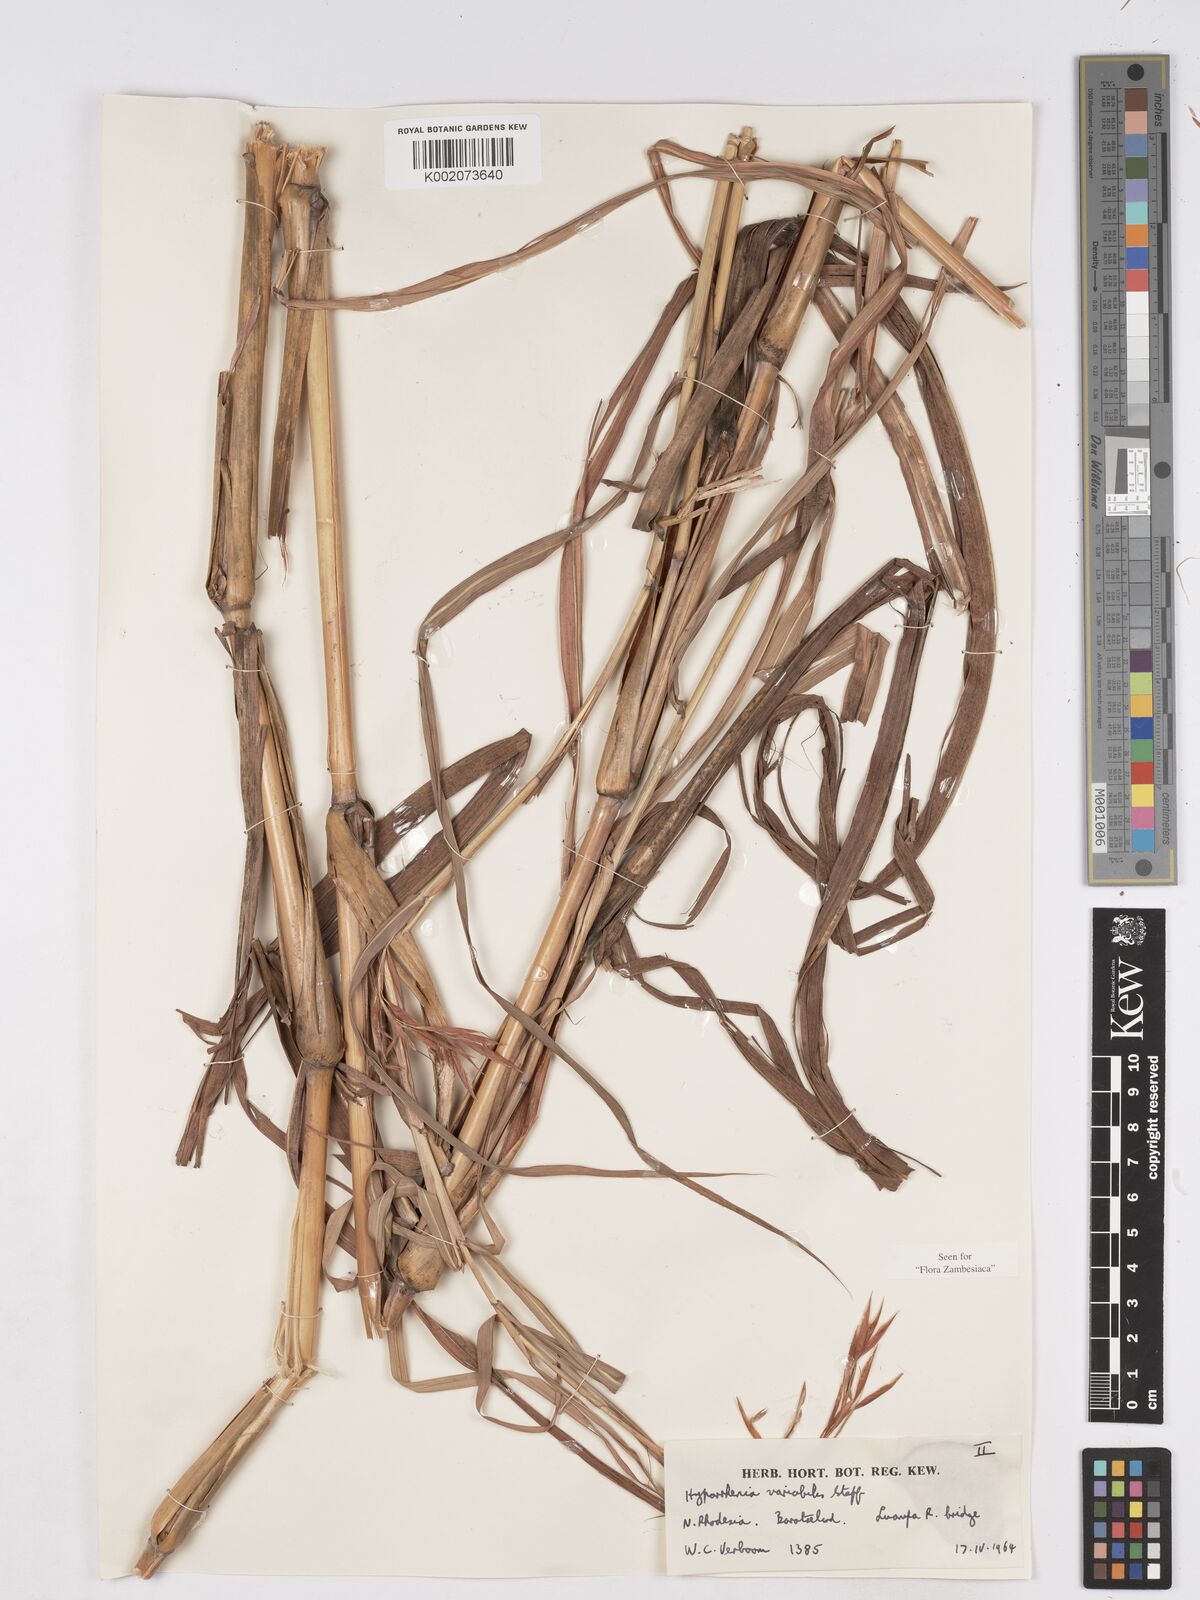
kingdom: Plantae
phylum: Tracheophyta
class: Liliopsida
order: Poales
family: Poaceae
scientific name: Poaceae
